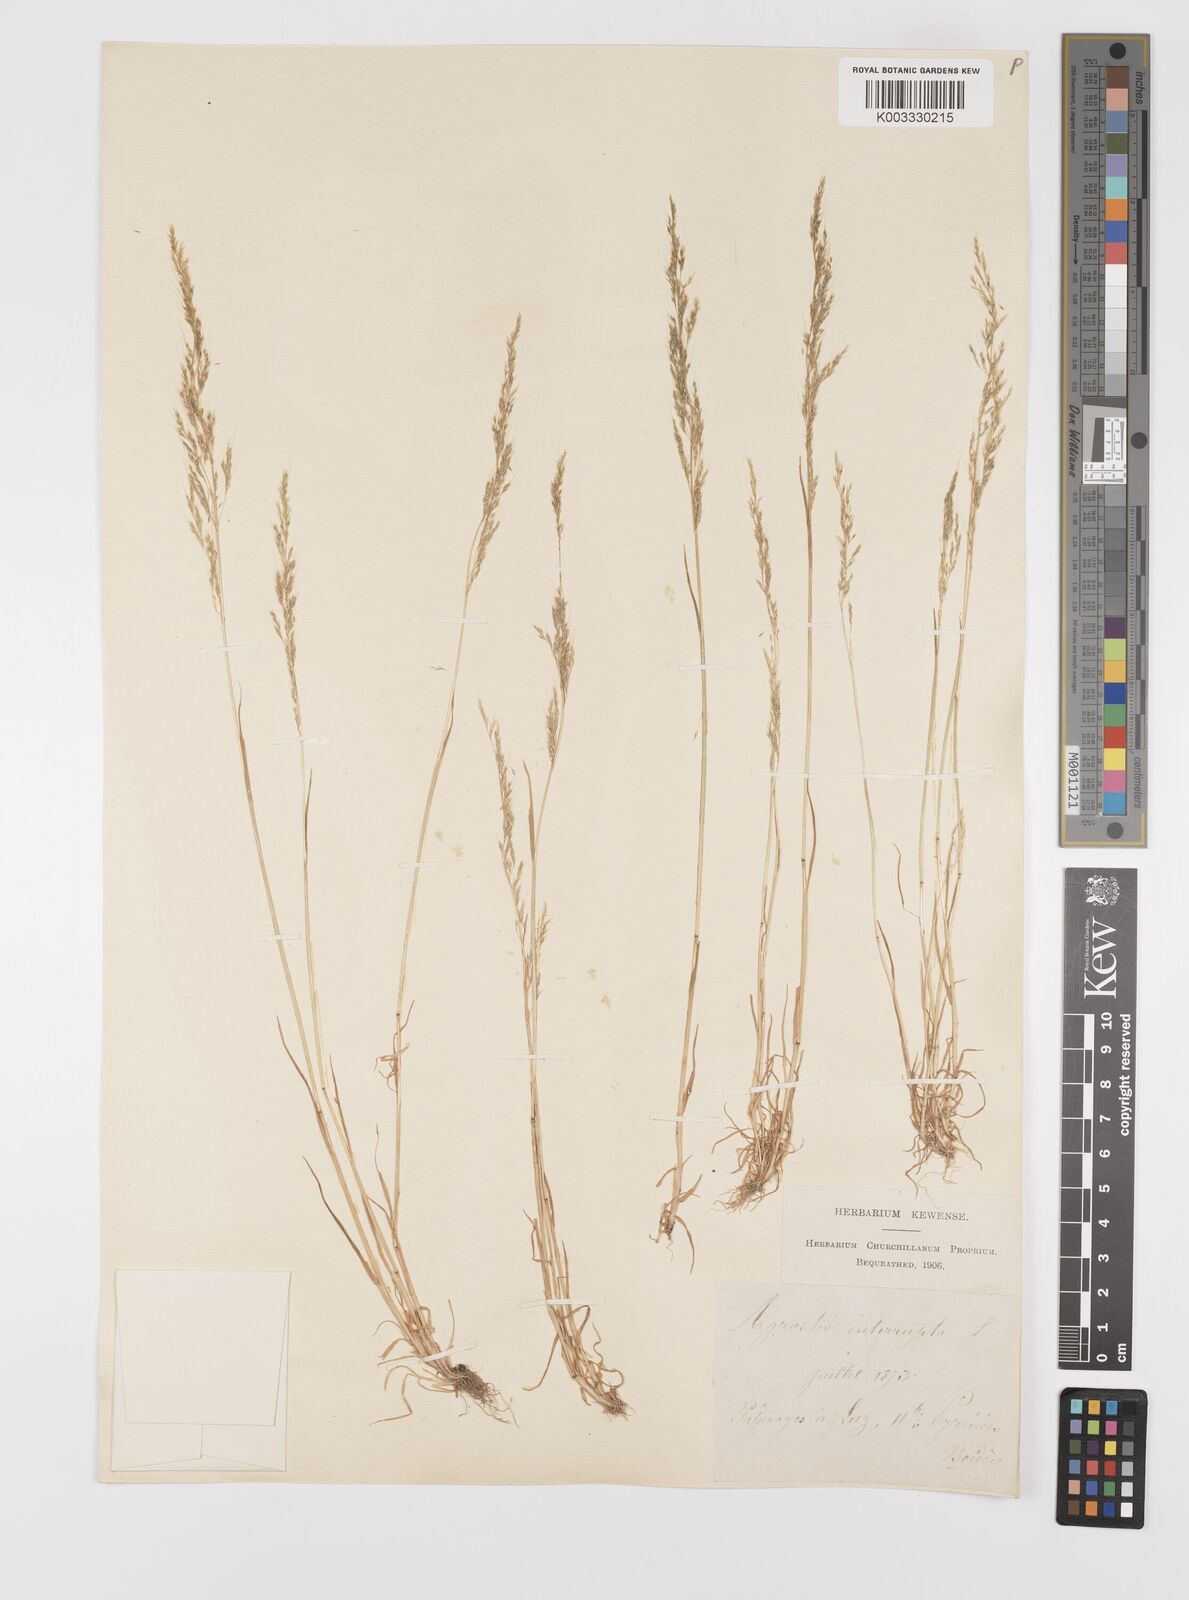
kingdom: Plantae
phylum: Tracheophyta
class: Liliopsida
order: Poales
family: Poaceae
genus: Apera
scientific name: Apera interrupta
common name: Dense silky-bent
